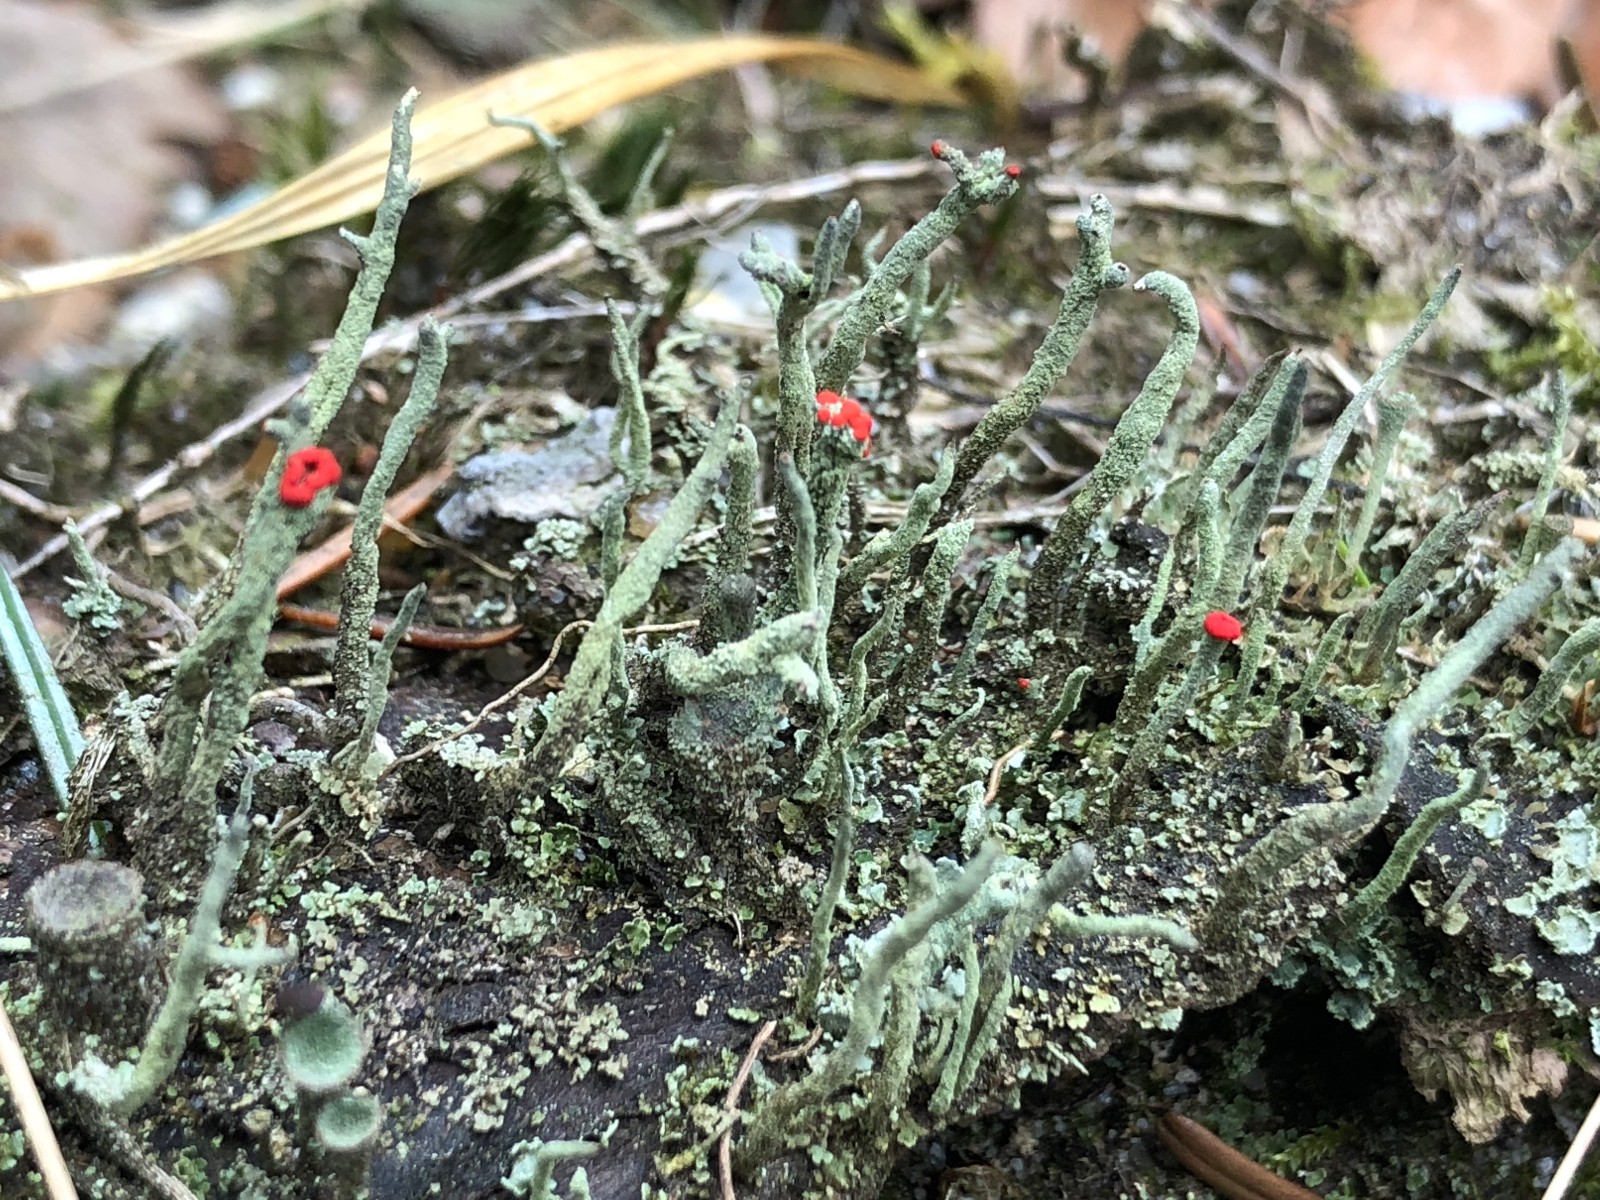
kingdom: Fungi
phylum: Ascomycota
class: Lecanoromycetes
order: Lecanorales
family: Cladoniaceae
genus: Cladonia
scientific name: Cladonia
